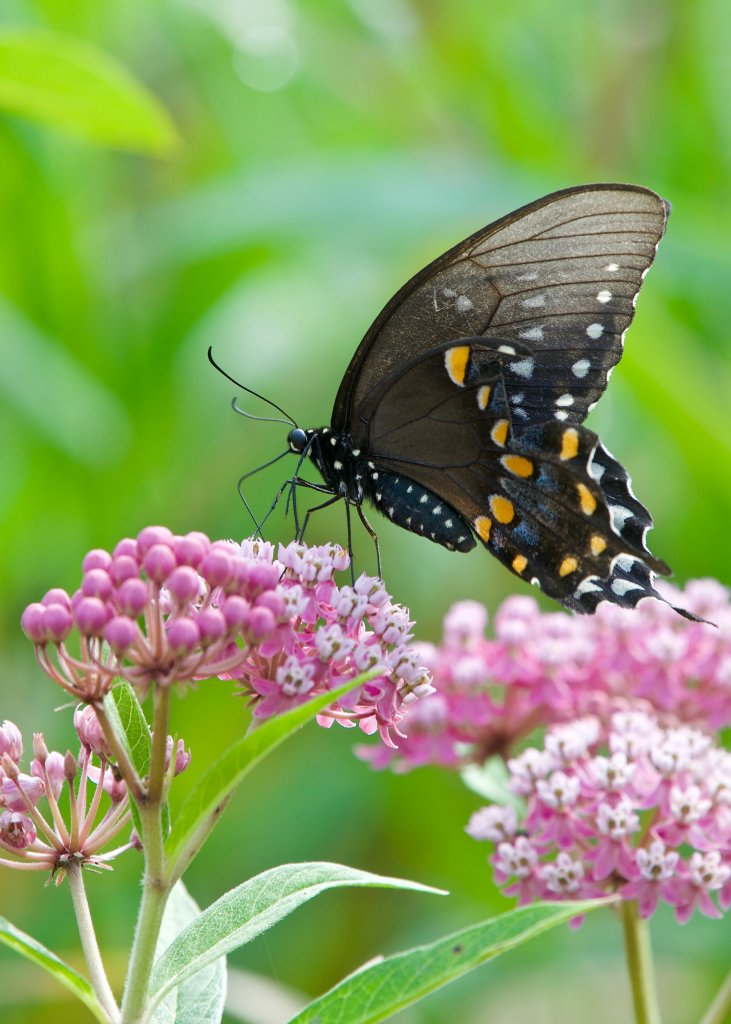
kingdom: Animalia
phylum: Arthropoda
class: Insecta
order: Lepidoptera
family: Papilionidae
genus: Pterourus
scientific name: Pterourus troilus
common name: Spicebush Swallowtail
